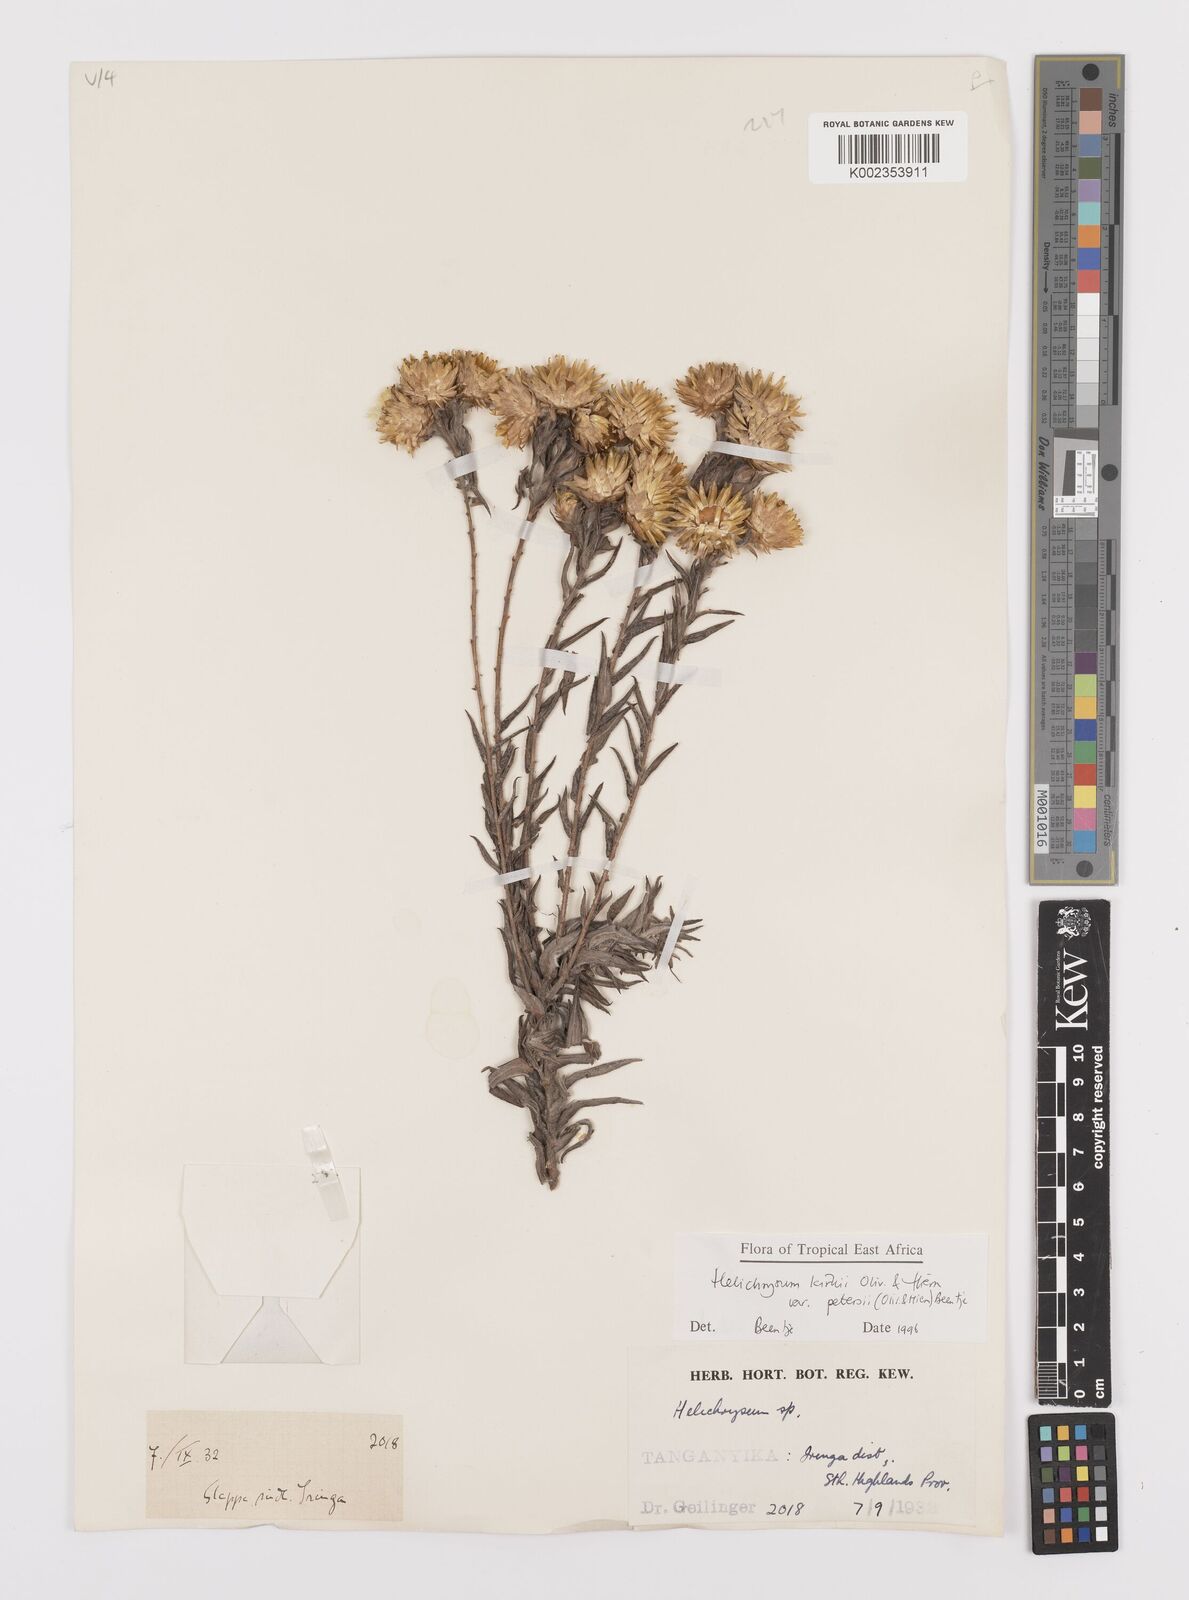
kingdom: Plantae
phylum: Tracheophyta
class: Magnoliopsida
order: Asterales
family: Asteraceae
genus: Helichrysum
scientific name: Helichrysum kirkii
